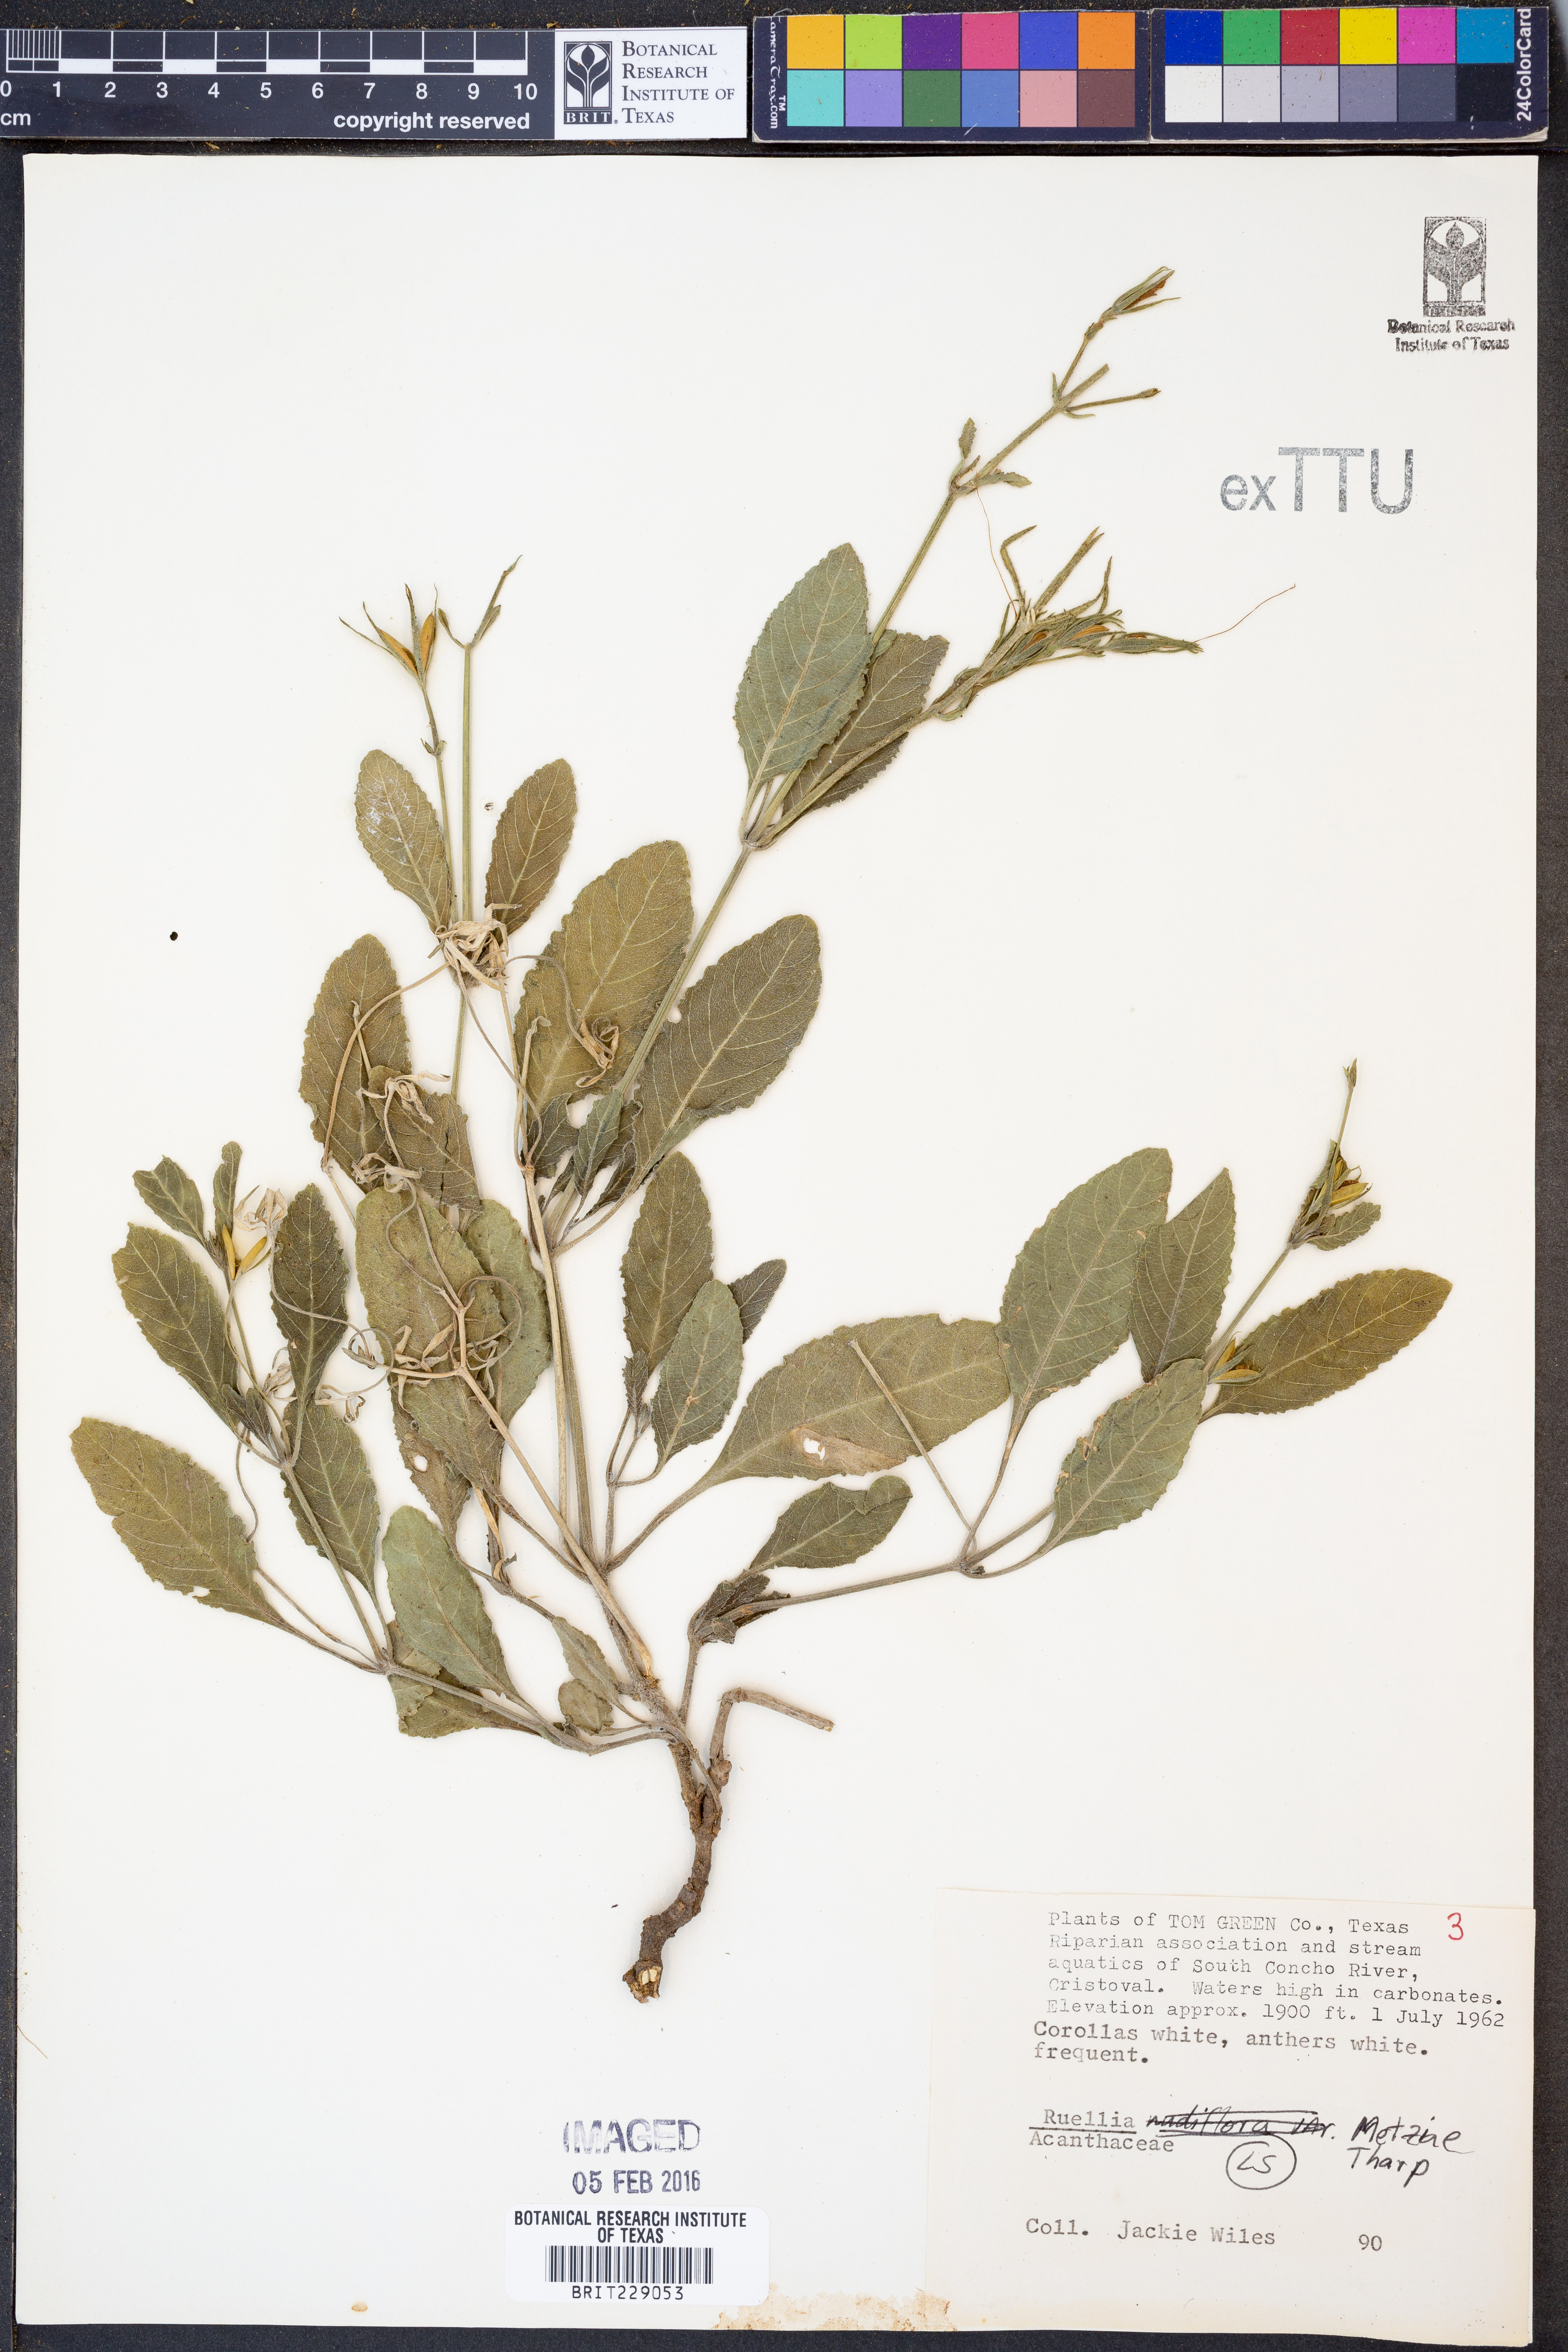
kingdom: Plantae
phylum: Tracheophyta
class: Magnoliopsida
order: Lamiales
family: Acanthaceae
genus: Ruellia
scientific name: Ruellia metziae
